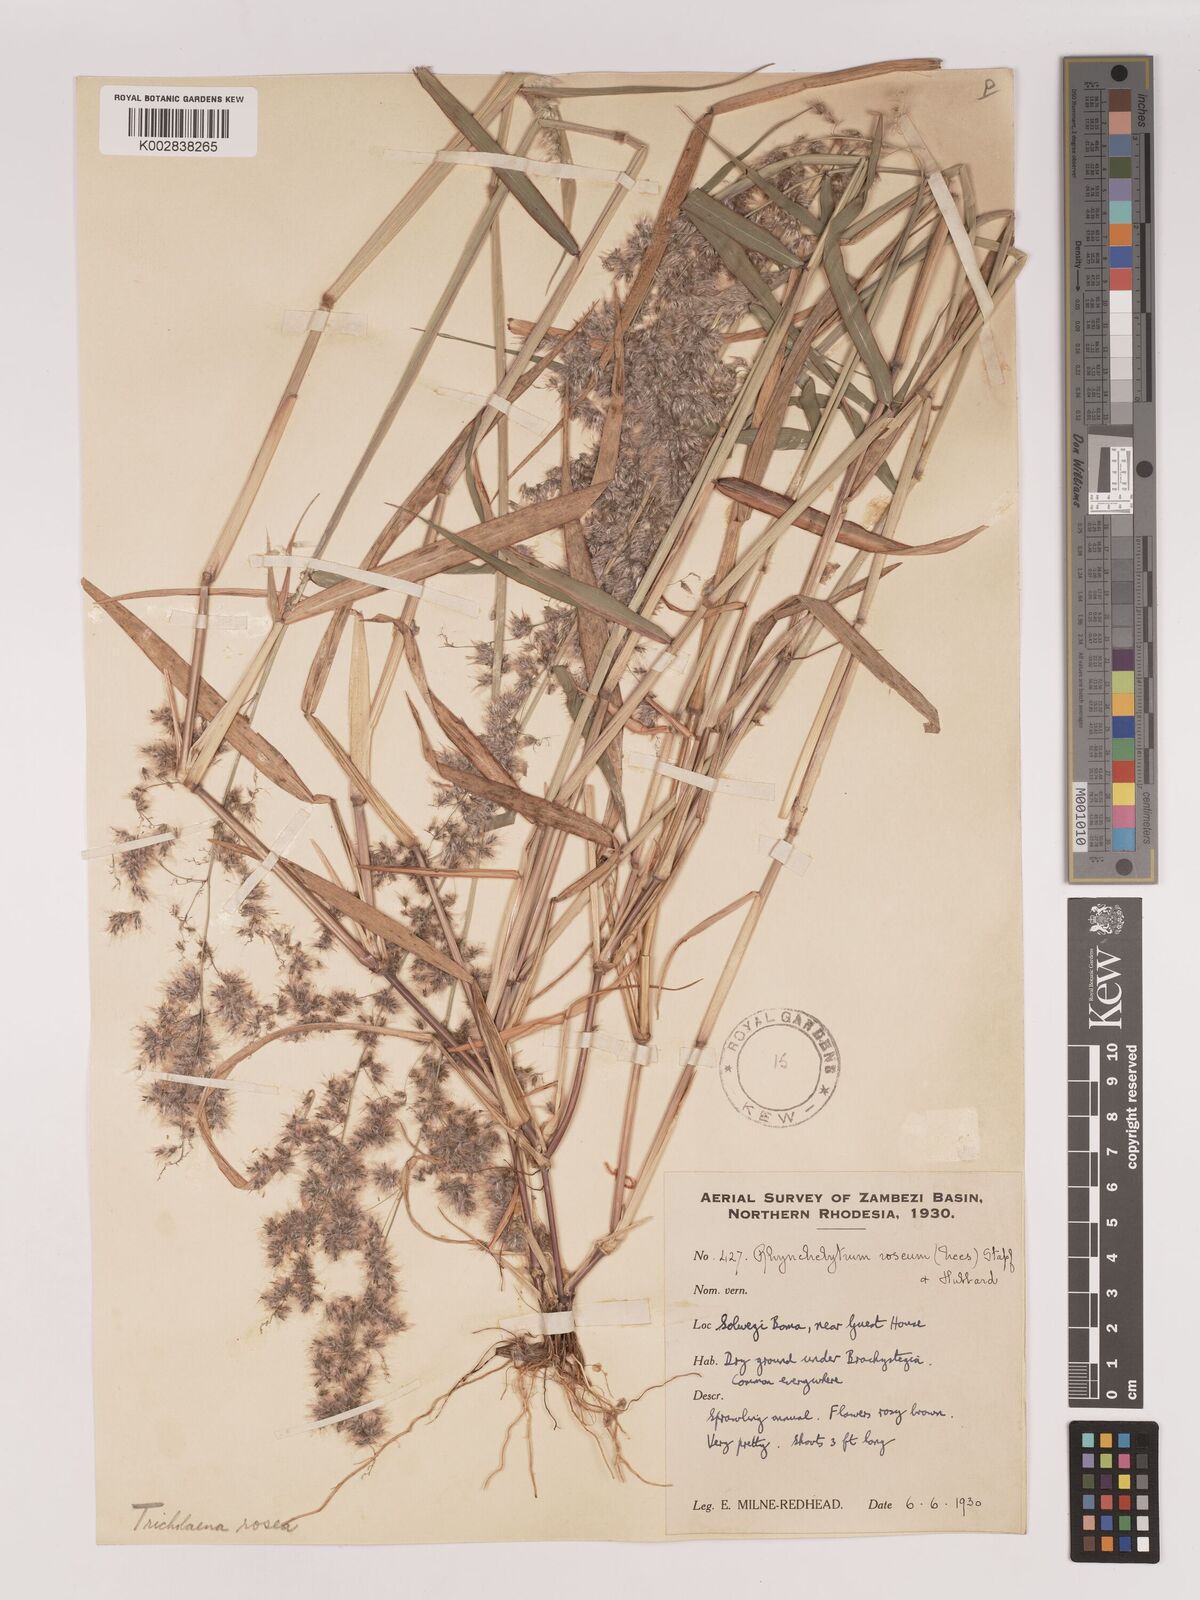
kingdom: Plantae
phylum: Tracheophyta
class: Liliopsida
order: Poales
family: Poaceae
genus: Melinis
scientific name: Melinis repens
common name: Rose natal grass
